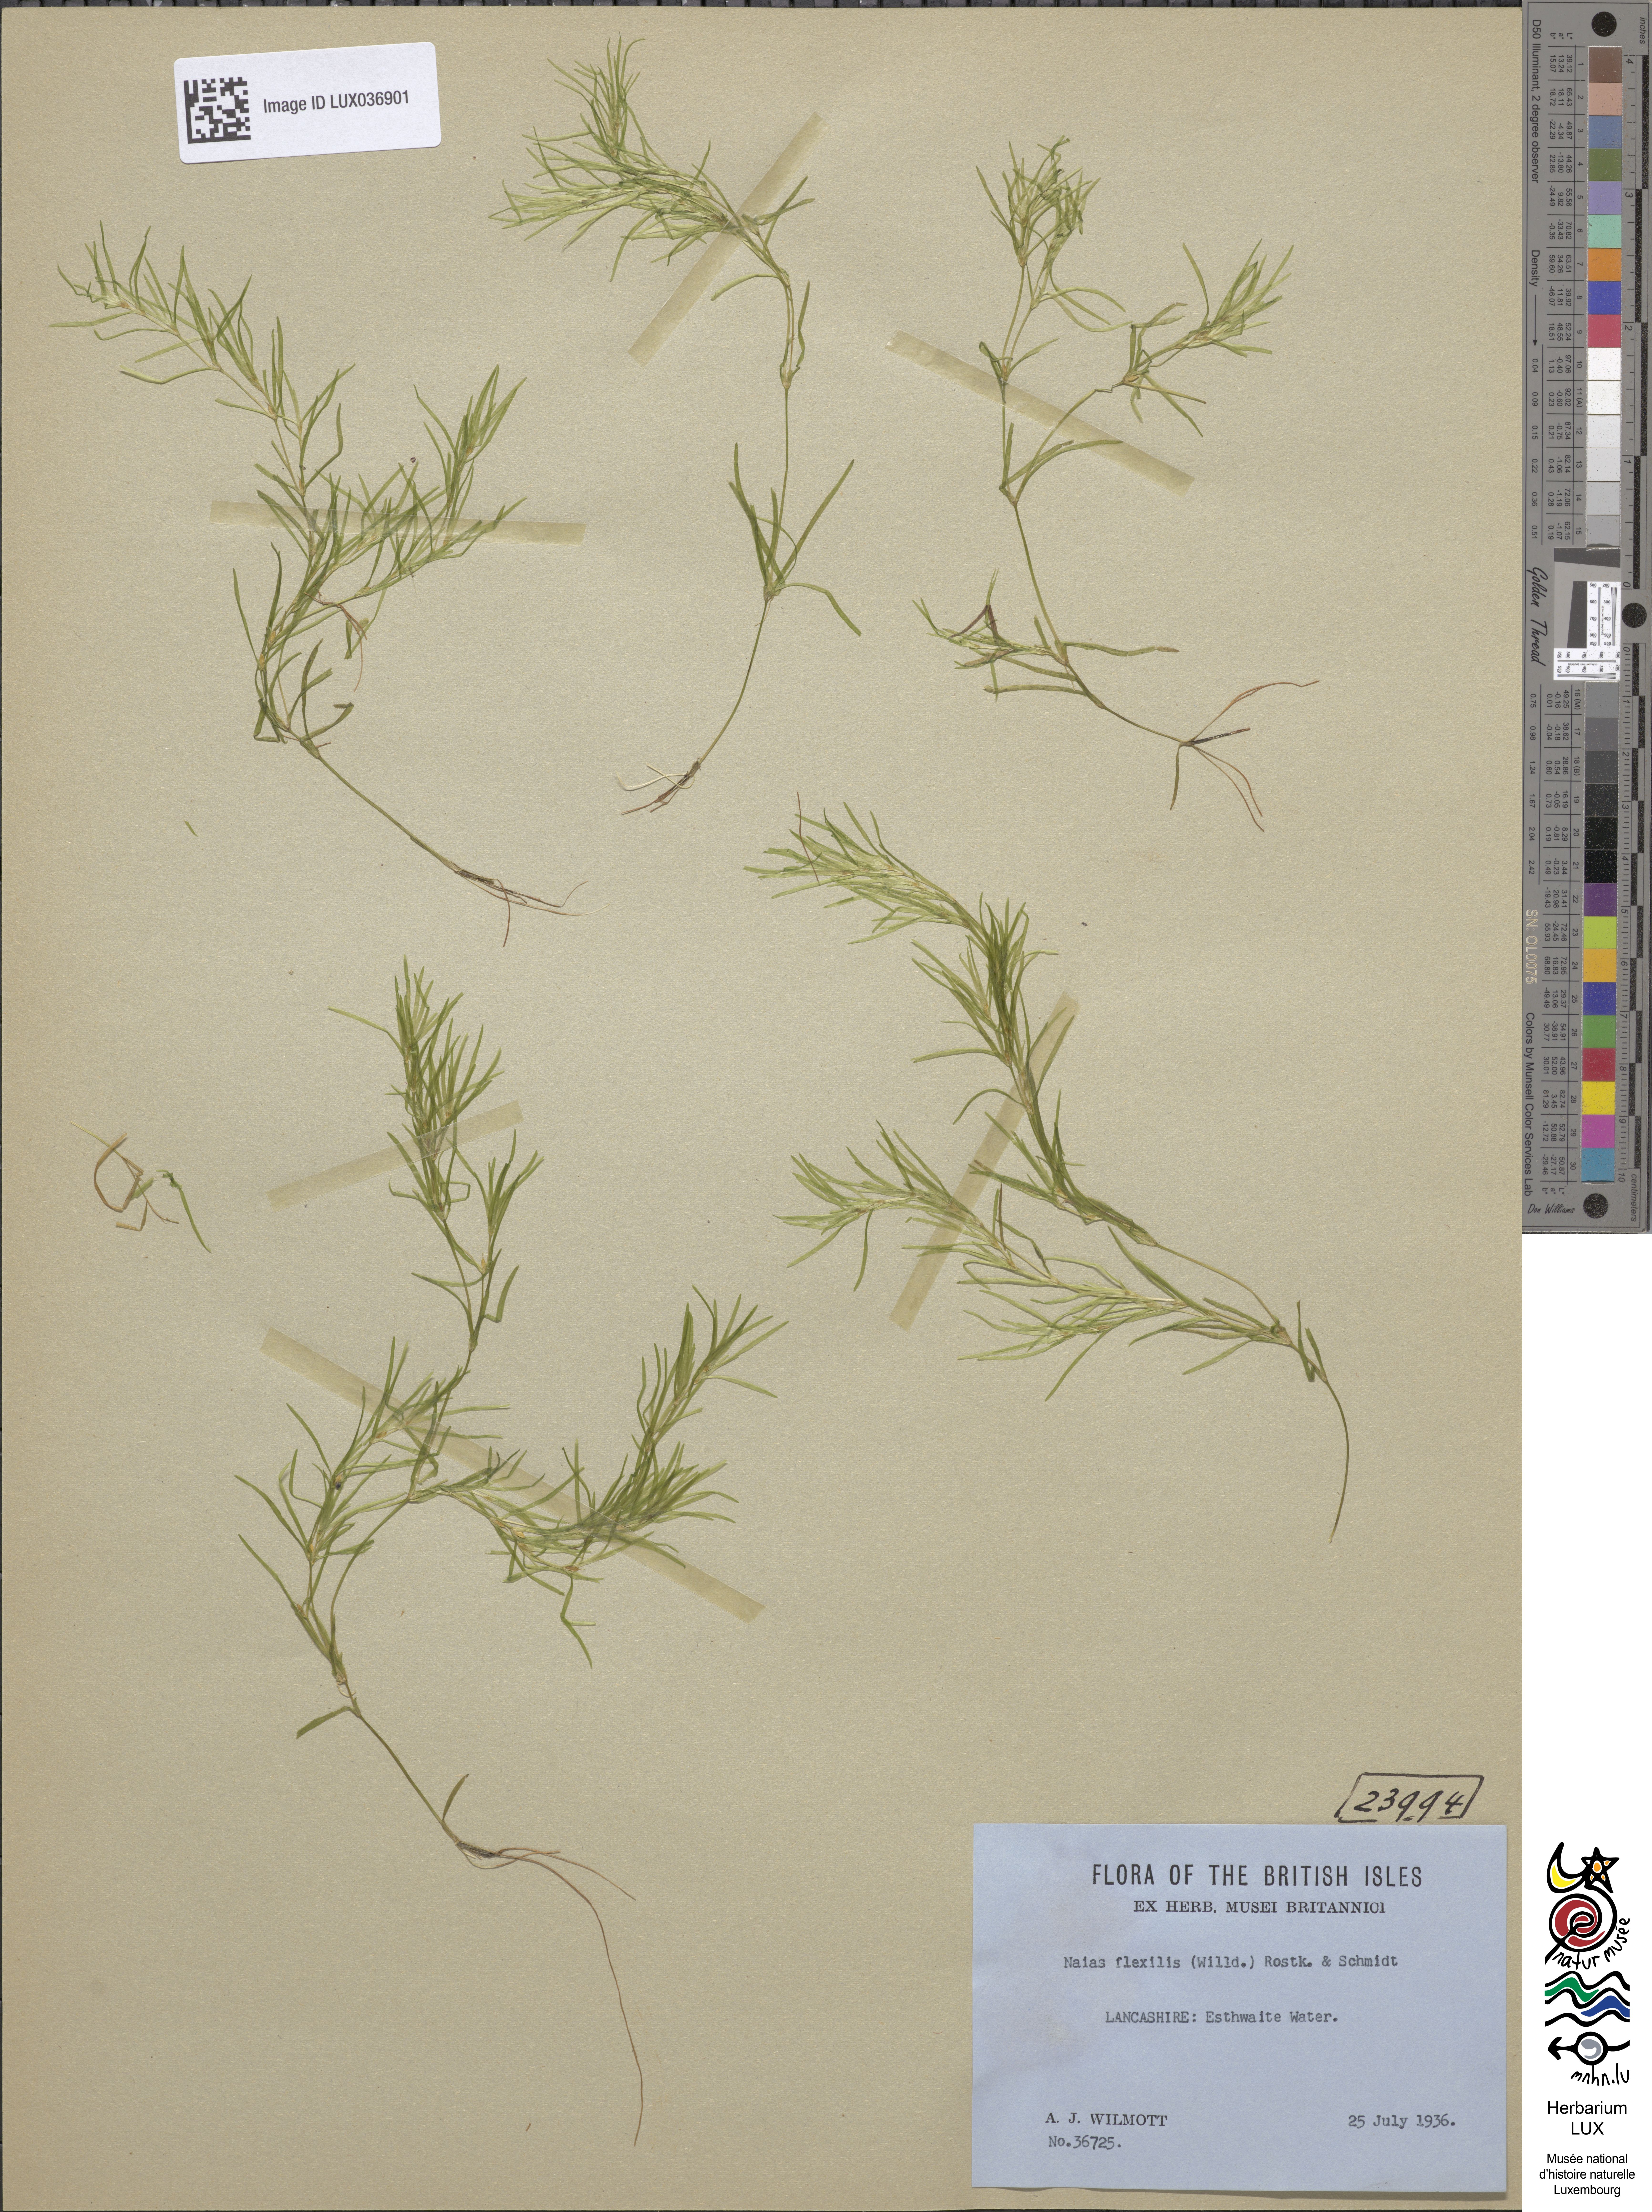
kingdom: Plantae
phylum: Tracheophyta
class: Liliopsida
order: Alismatales
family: Hydrocharitaceae
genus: Najas
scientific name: Najas flexilis
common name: Slender naiad
